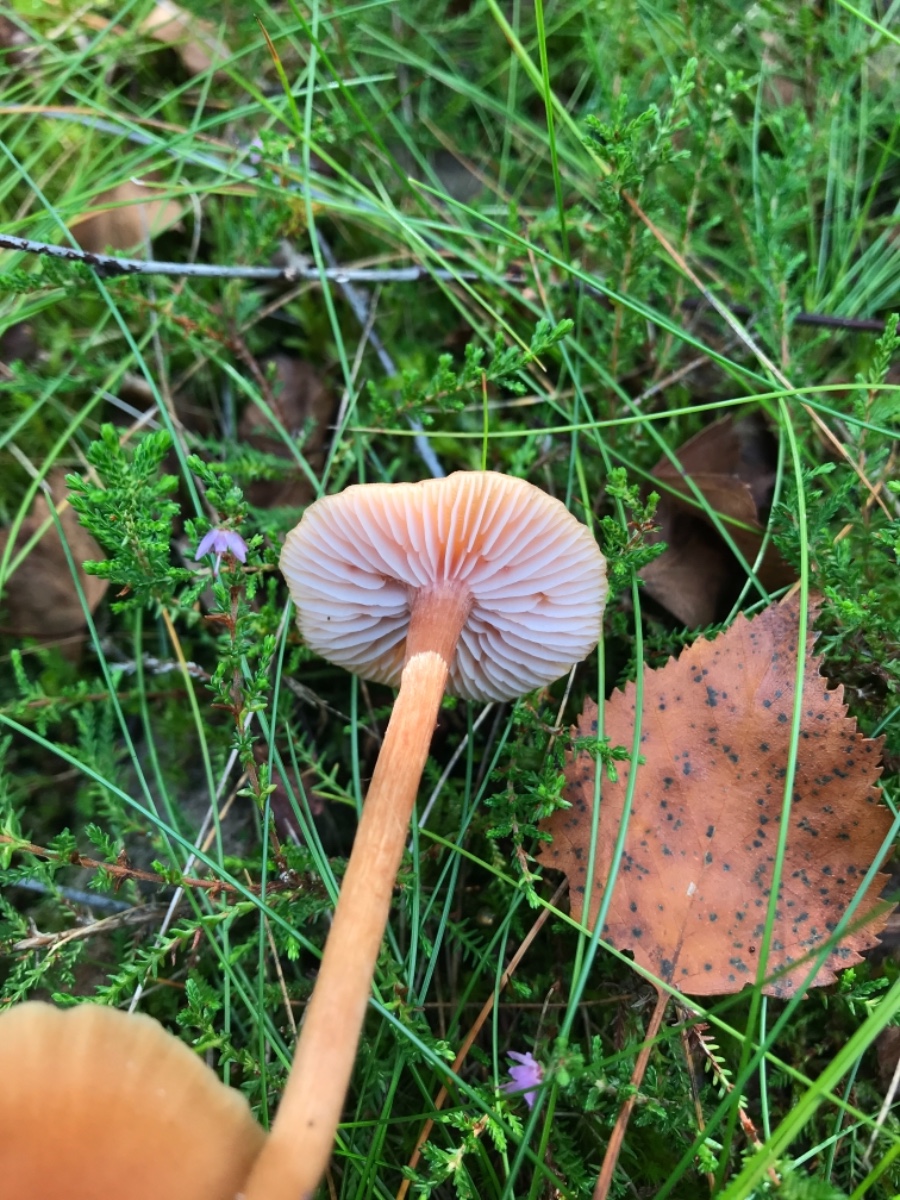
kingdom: Fungi
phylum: Basidiomycota
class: Agaricomycetes
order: Agaricales
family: Hydnangiaceae
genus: Laccaria
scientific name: Laccaria laccata
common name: rød ametysthat
